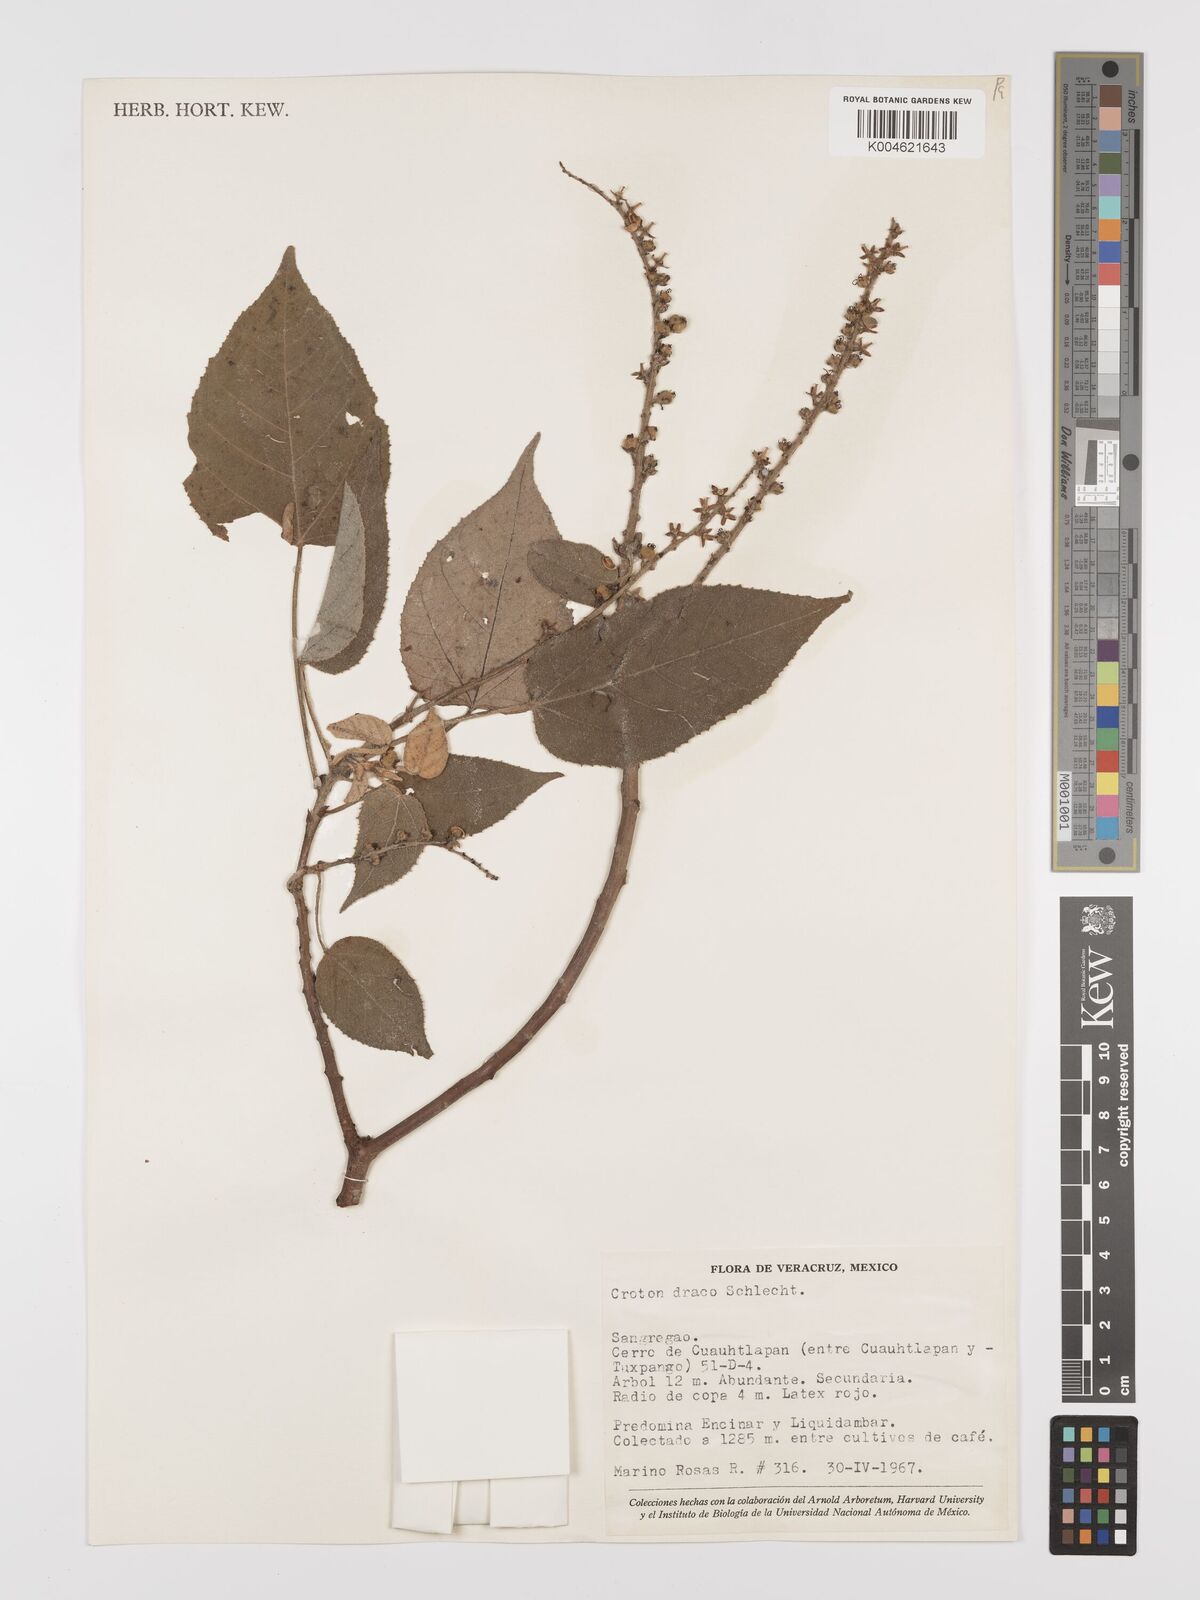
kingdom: Plantae
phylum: Tracheophyta
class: Magnoliopsida
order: Malpighiales
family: Euphorbiaceae
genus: Croton
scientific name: Croton draco
